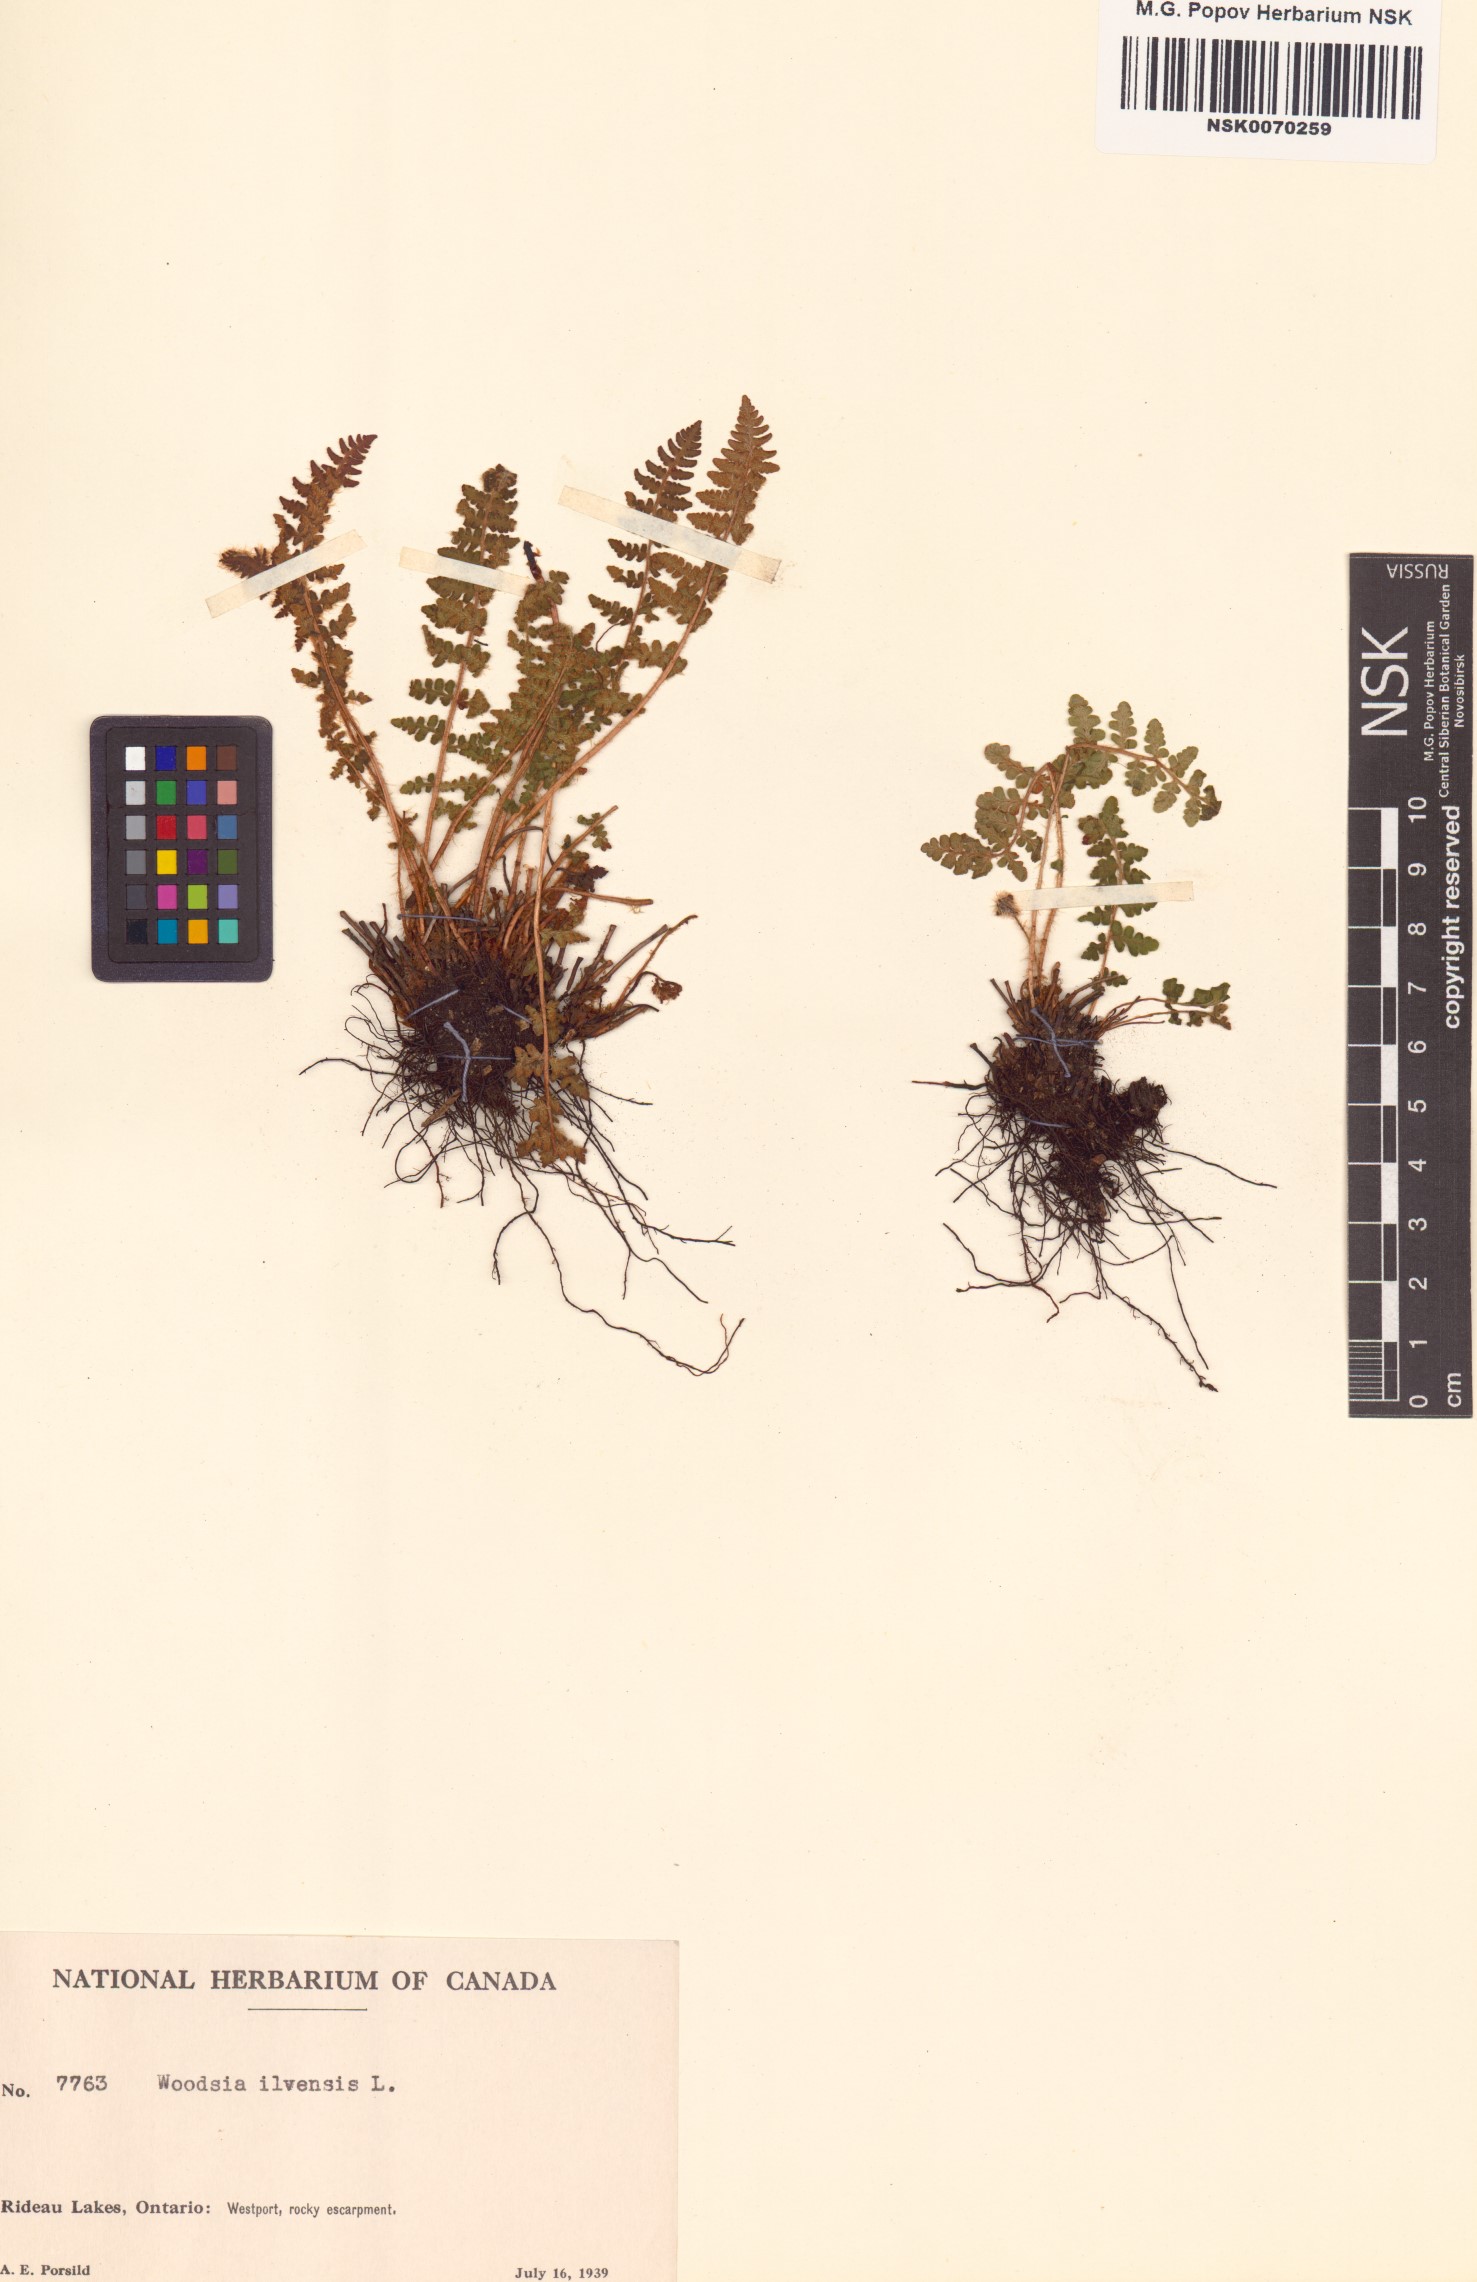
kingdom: Plantae
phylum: Tracheophyta
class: Polypodiopsida
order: Polypodiales
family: Woodsiaceae
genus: Woodsia
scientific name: Woodsia ilvensis
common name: Fragrant woodsia
